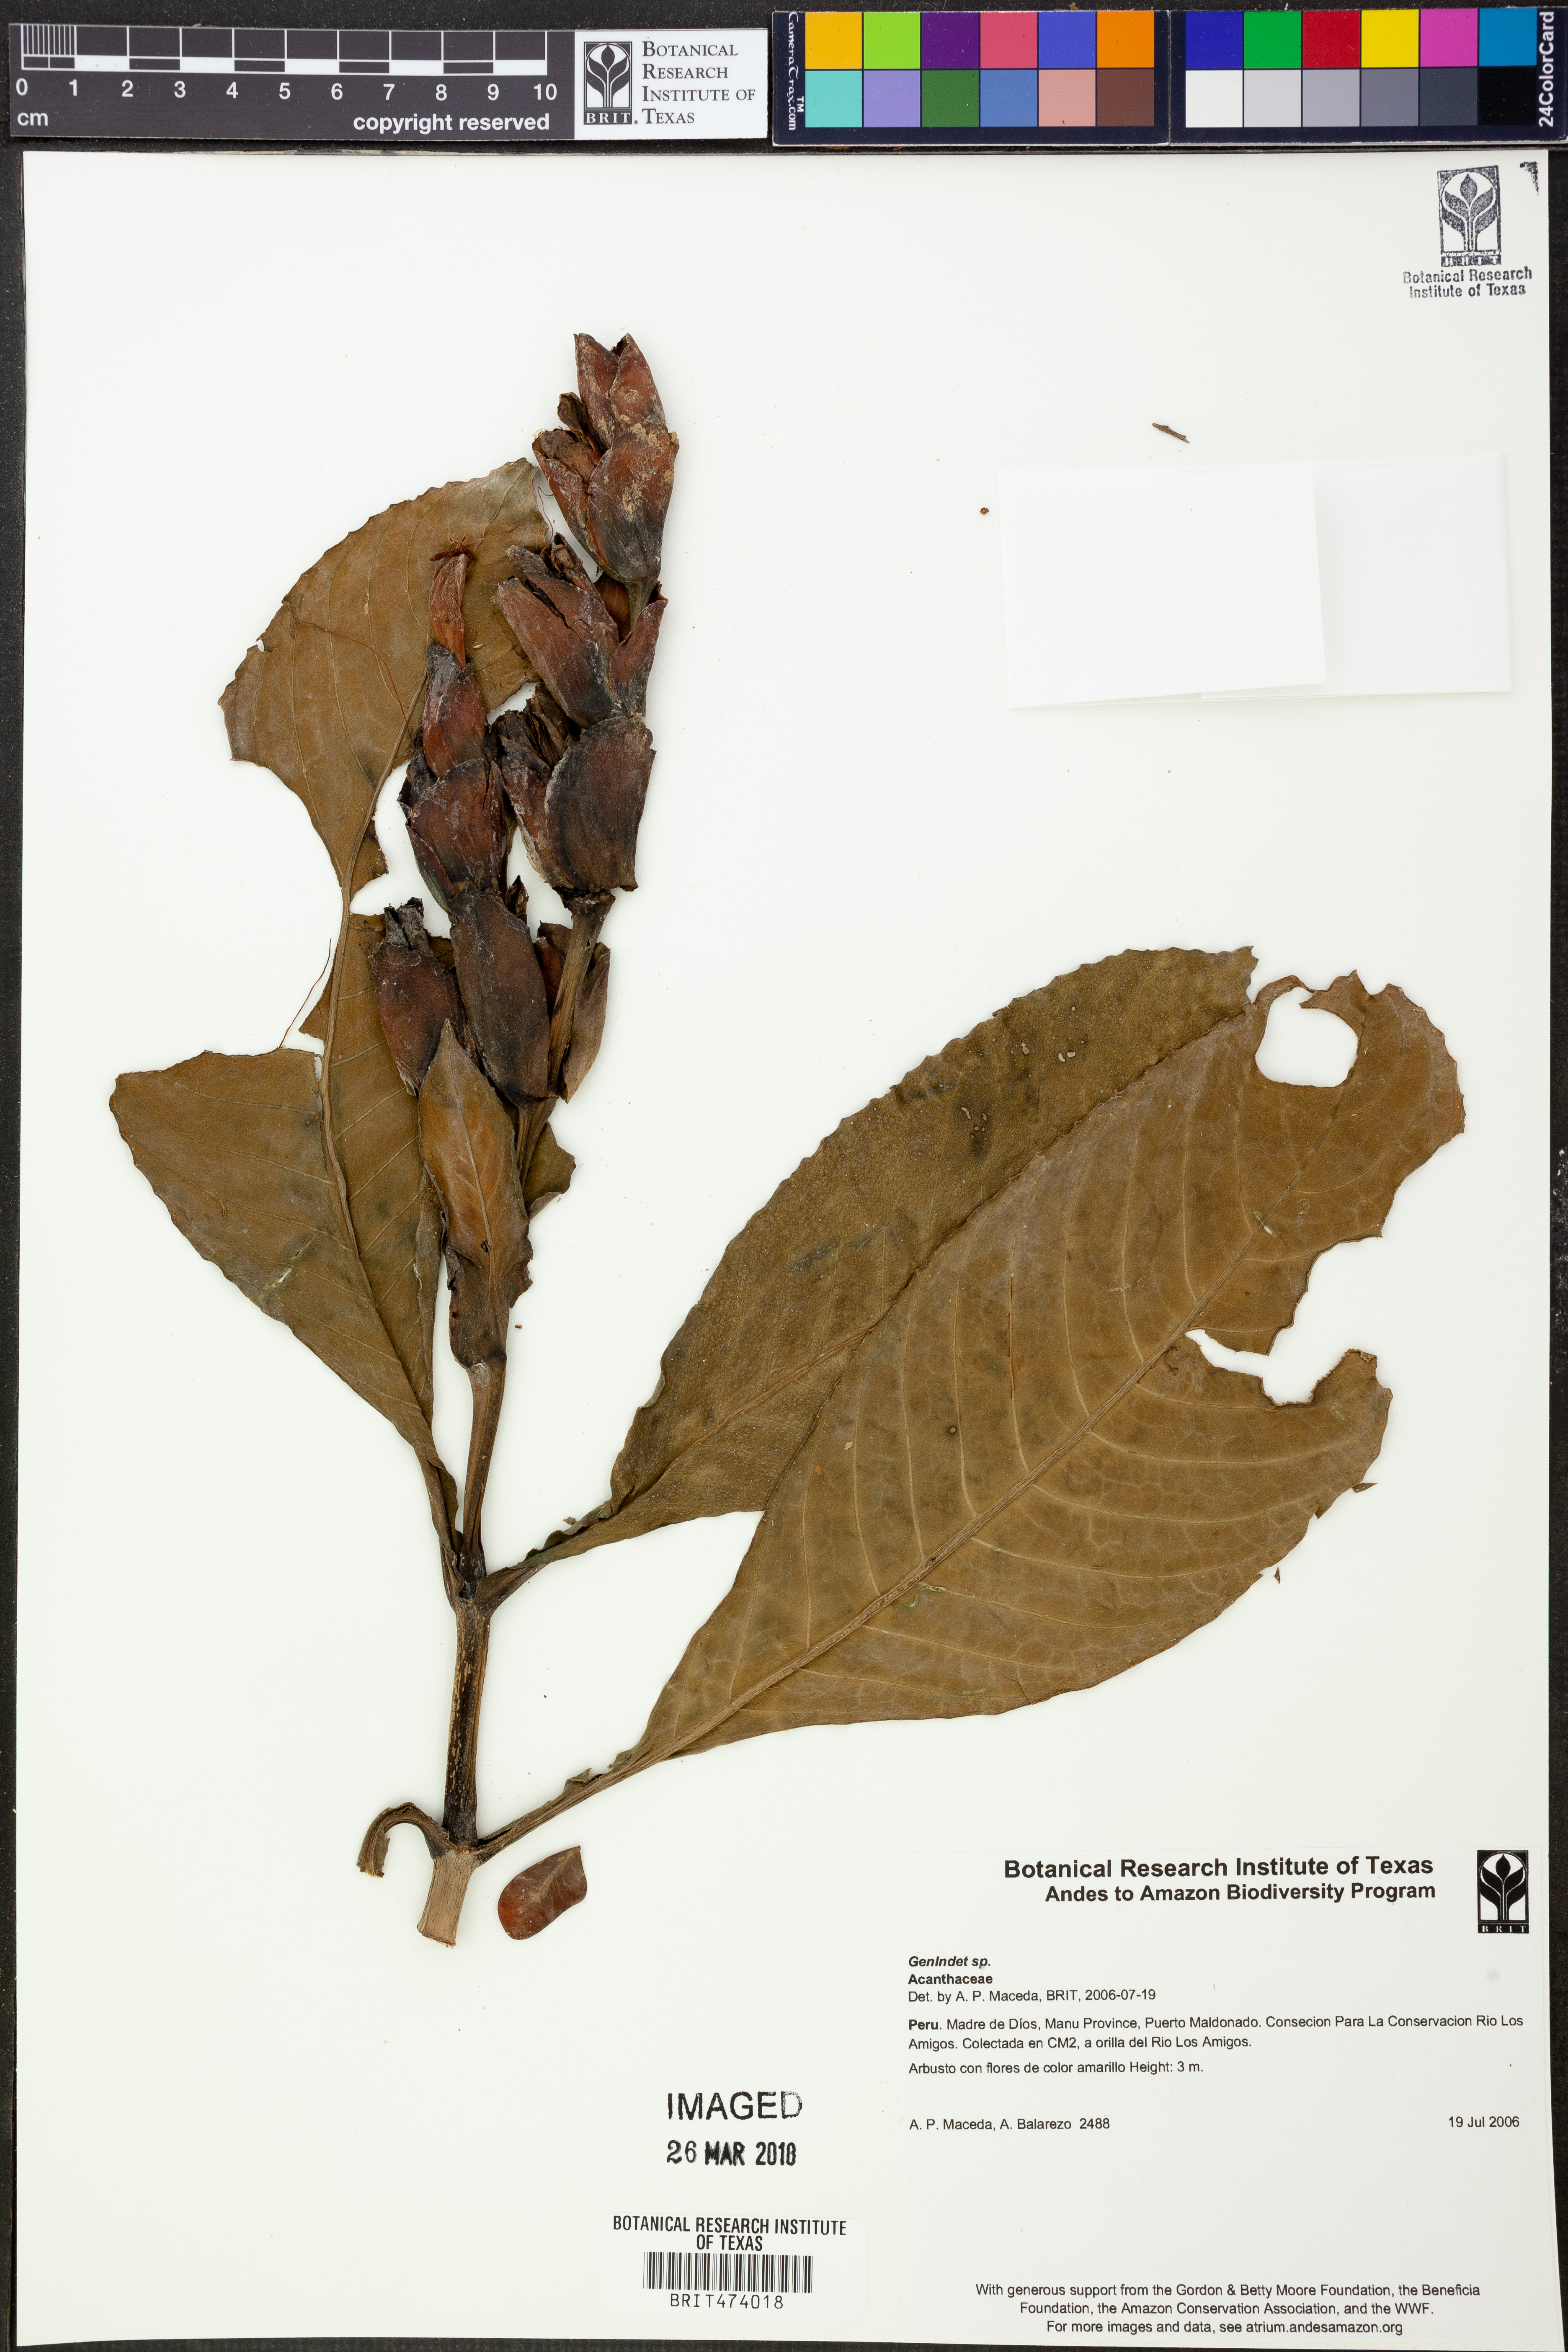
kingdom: Plantae
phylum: Tracheophyta
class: Magnoliopsida
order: Lamiales
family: Acanthaceae
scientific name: Acanthaceae
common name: Acanthaceae
